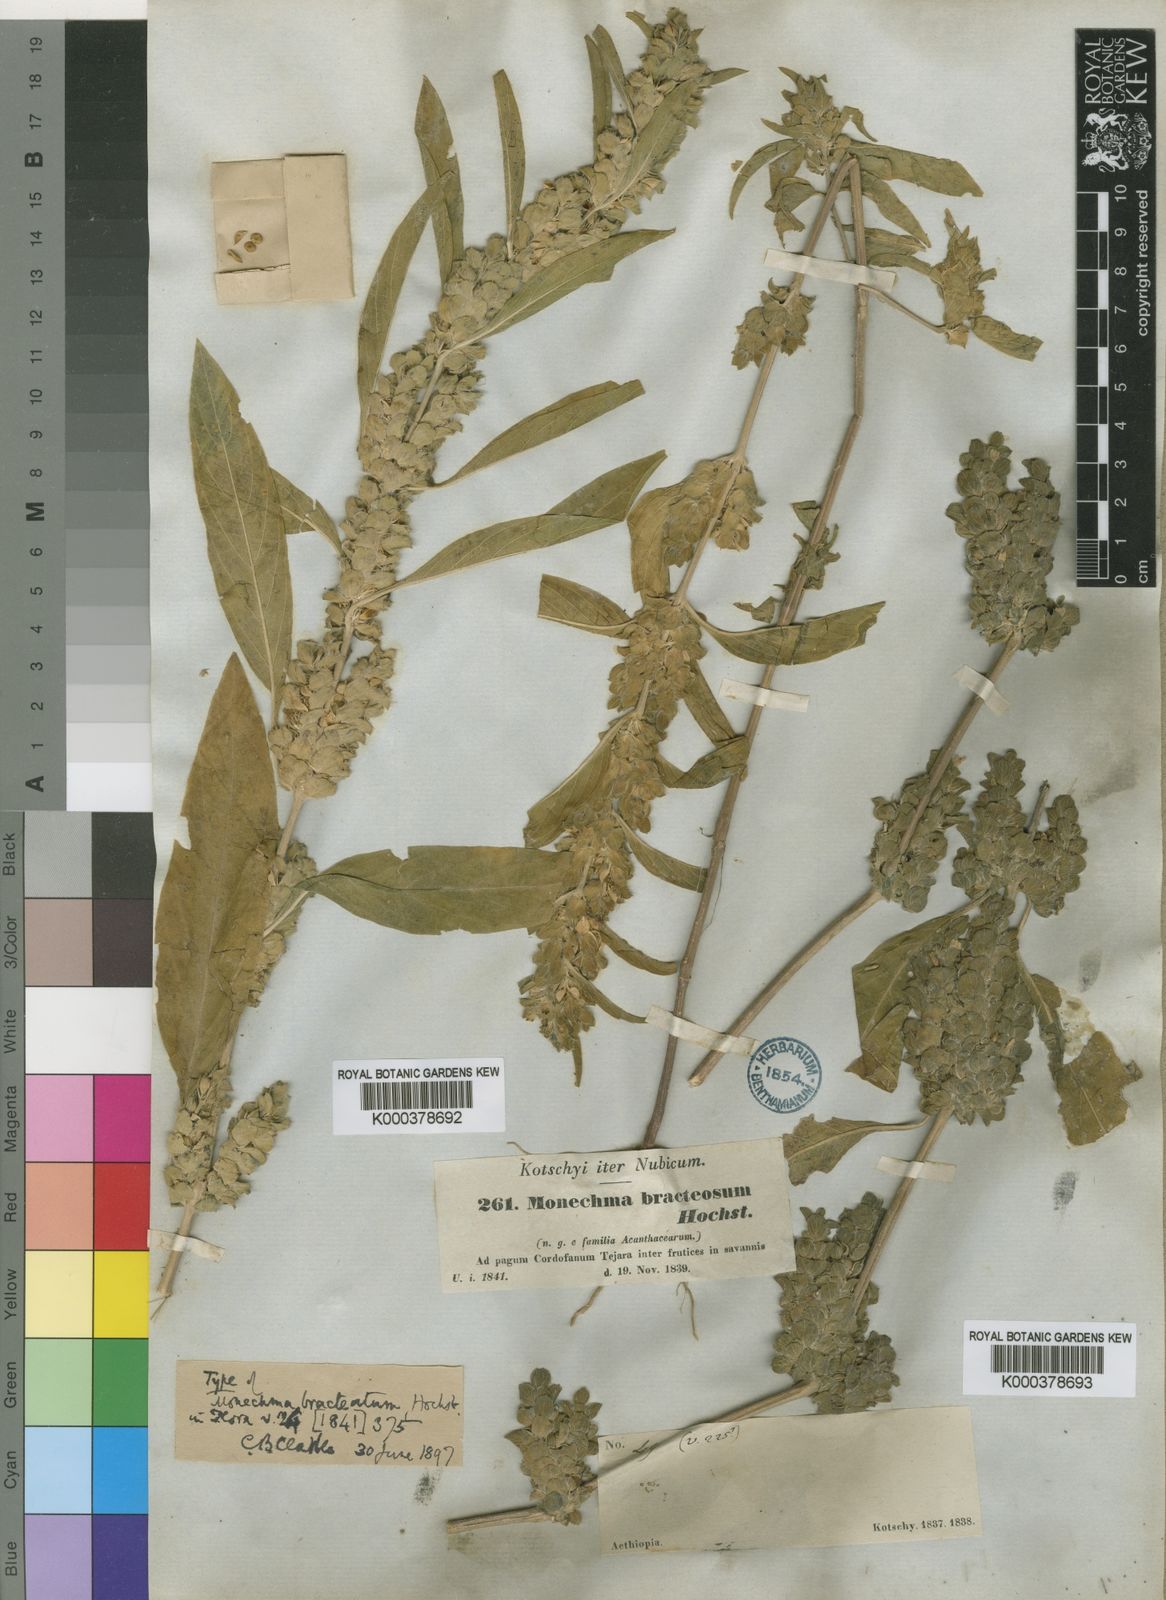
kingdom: Plantae
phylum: Tracheophyta
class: Magnoliopsida
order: Lamiales
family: Acanthaceae
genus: Monechma
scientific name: Monechma debile
